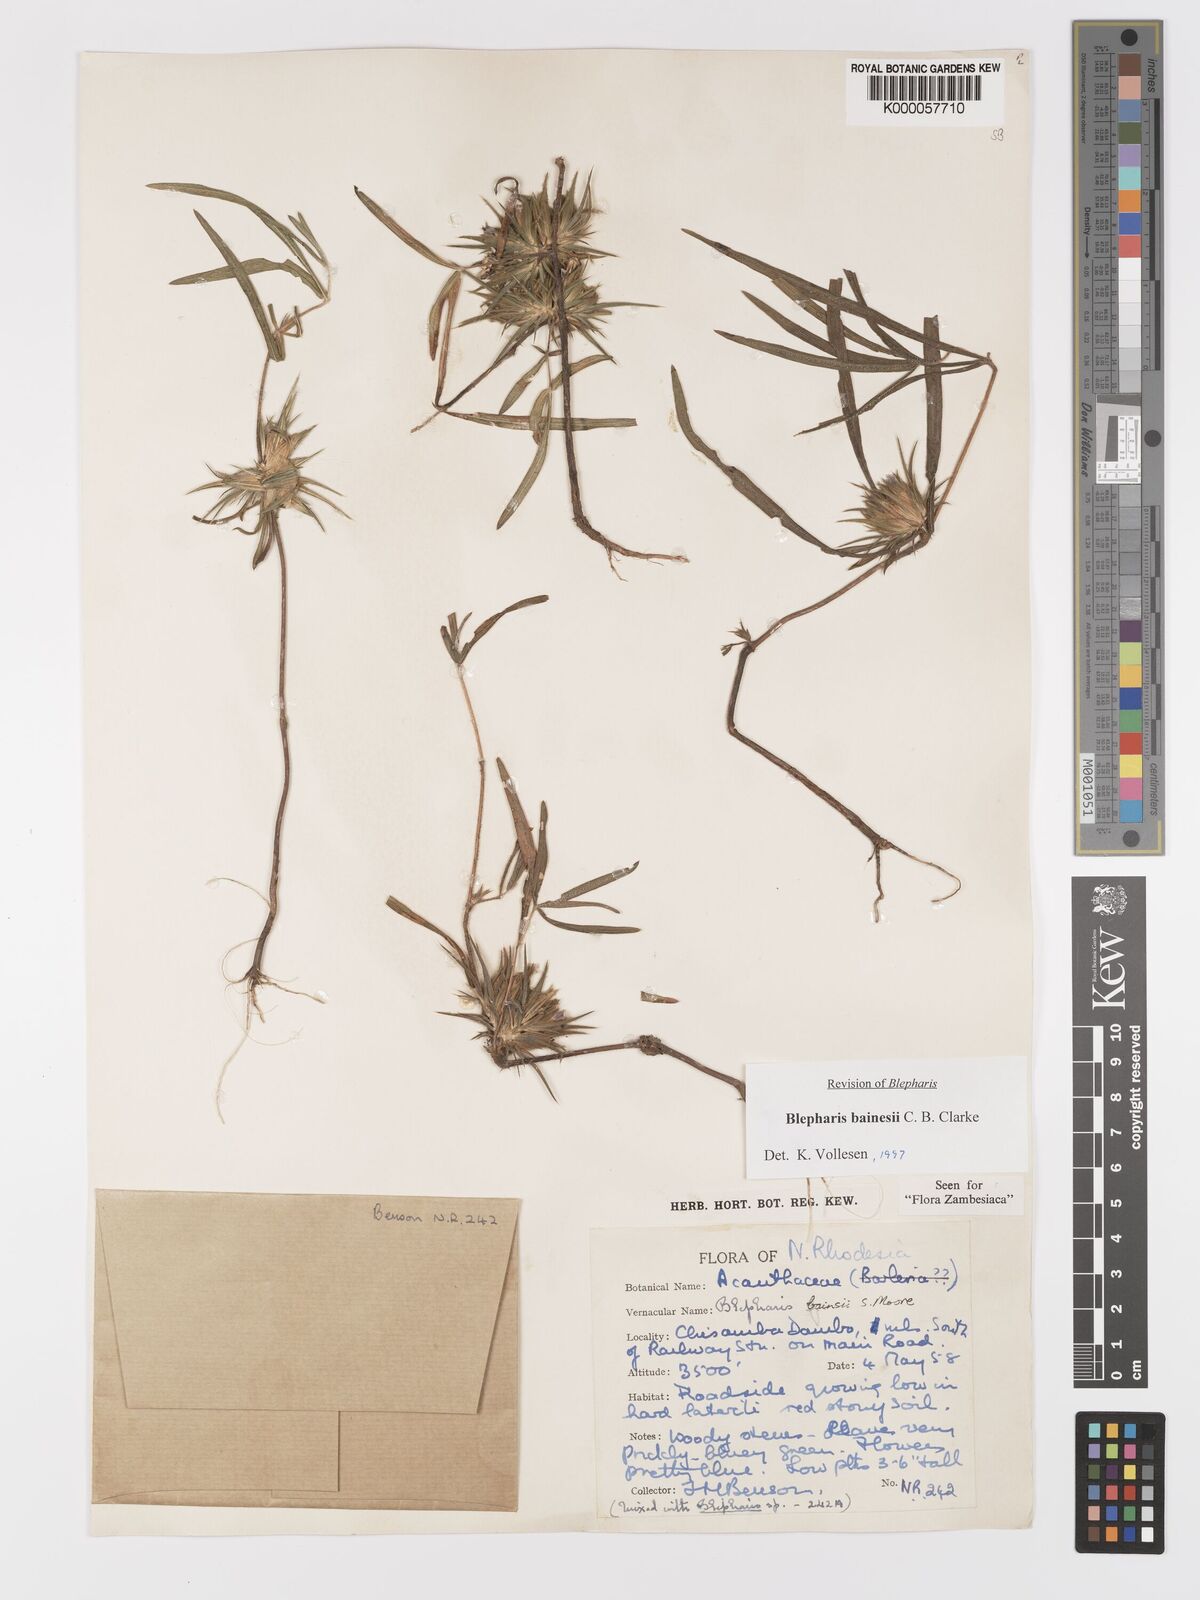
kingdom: Plantae
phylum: Tracheophyta
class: Magnoliopsida
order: Lamiales
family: Acanthaceae
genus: Blepharis
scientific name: Blepharis bainesii
